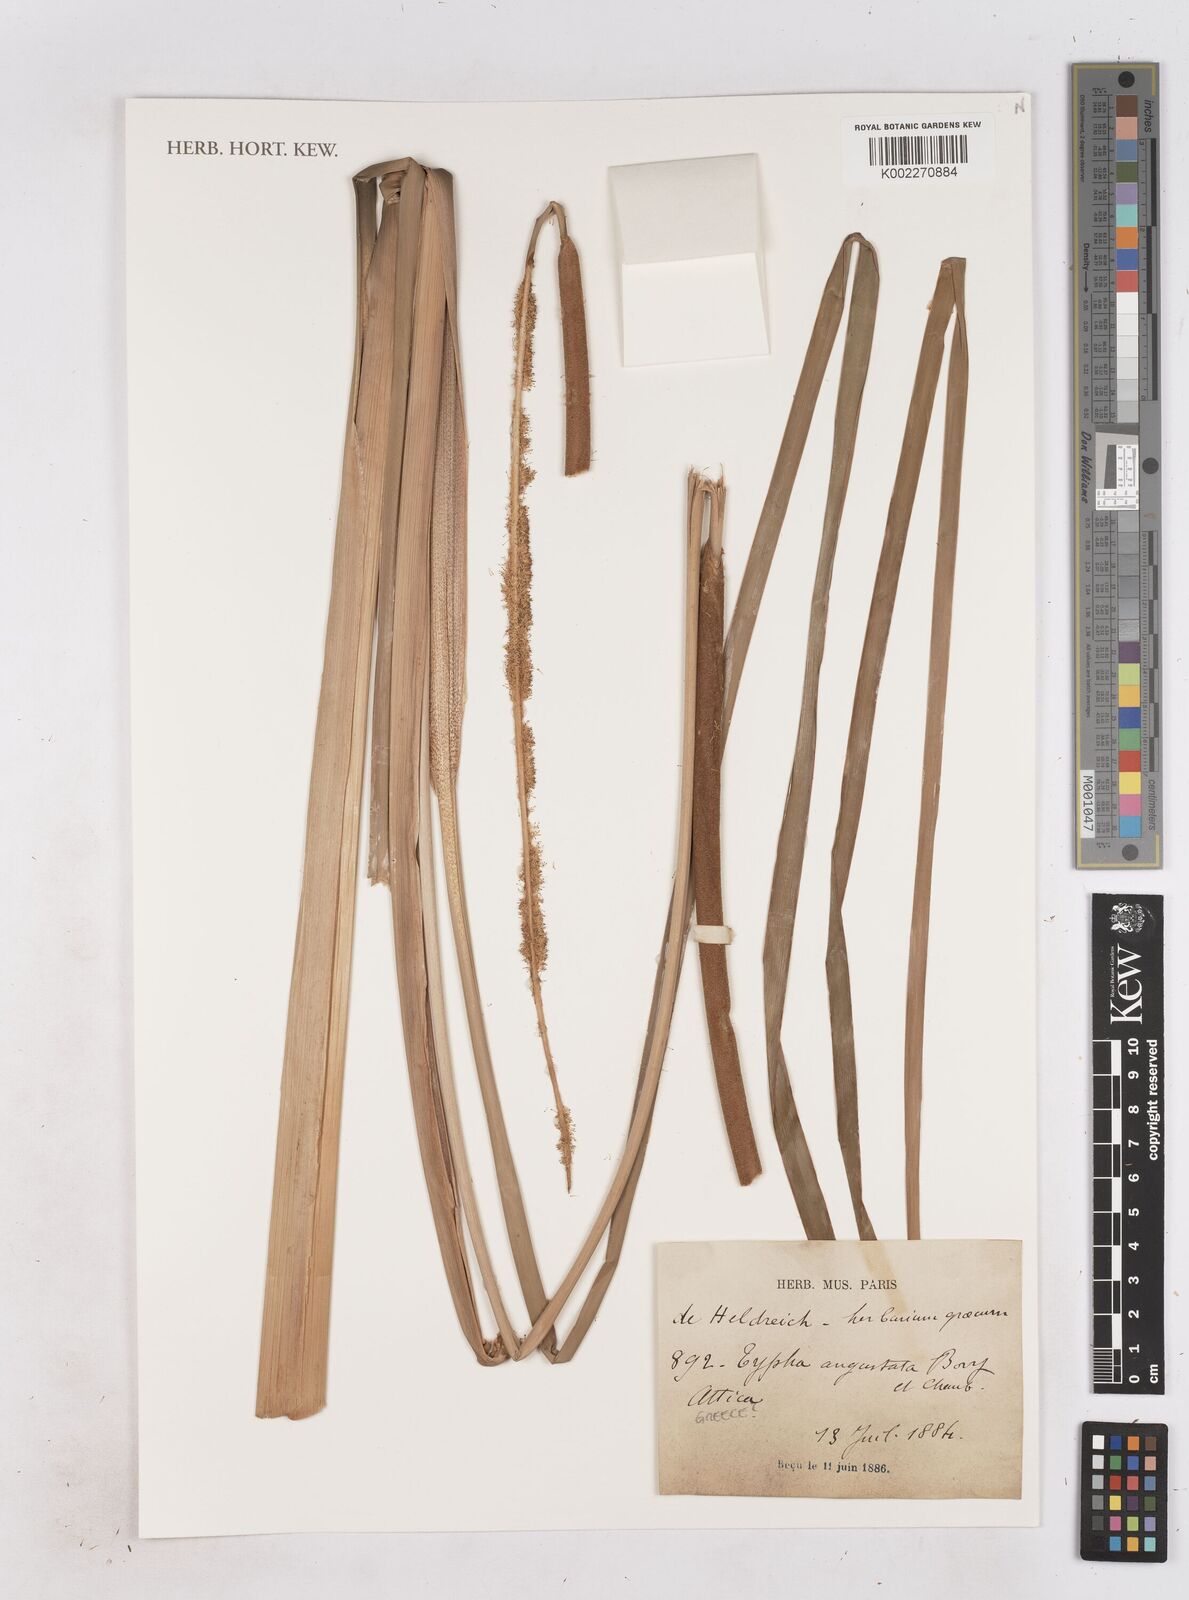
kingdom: Plantae
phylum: Tracheophyta
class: Liliopsida
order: Poales
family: Typhaceae
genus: Typha
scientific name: Typha domingensis
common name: Southern cattail
